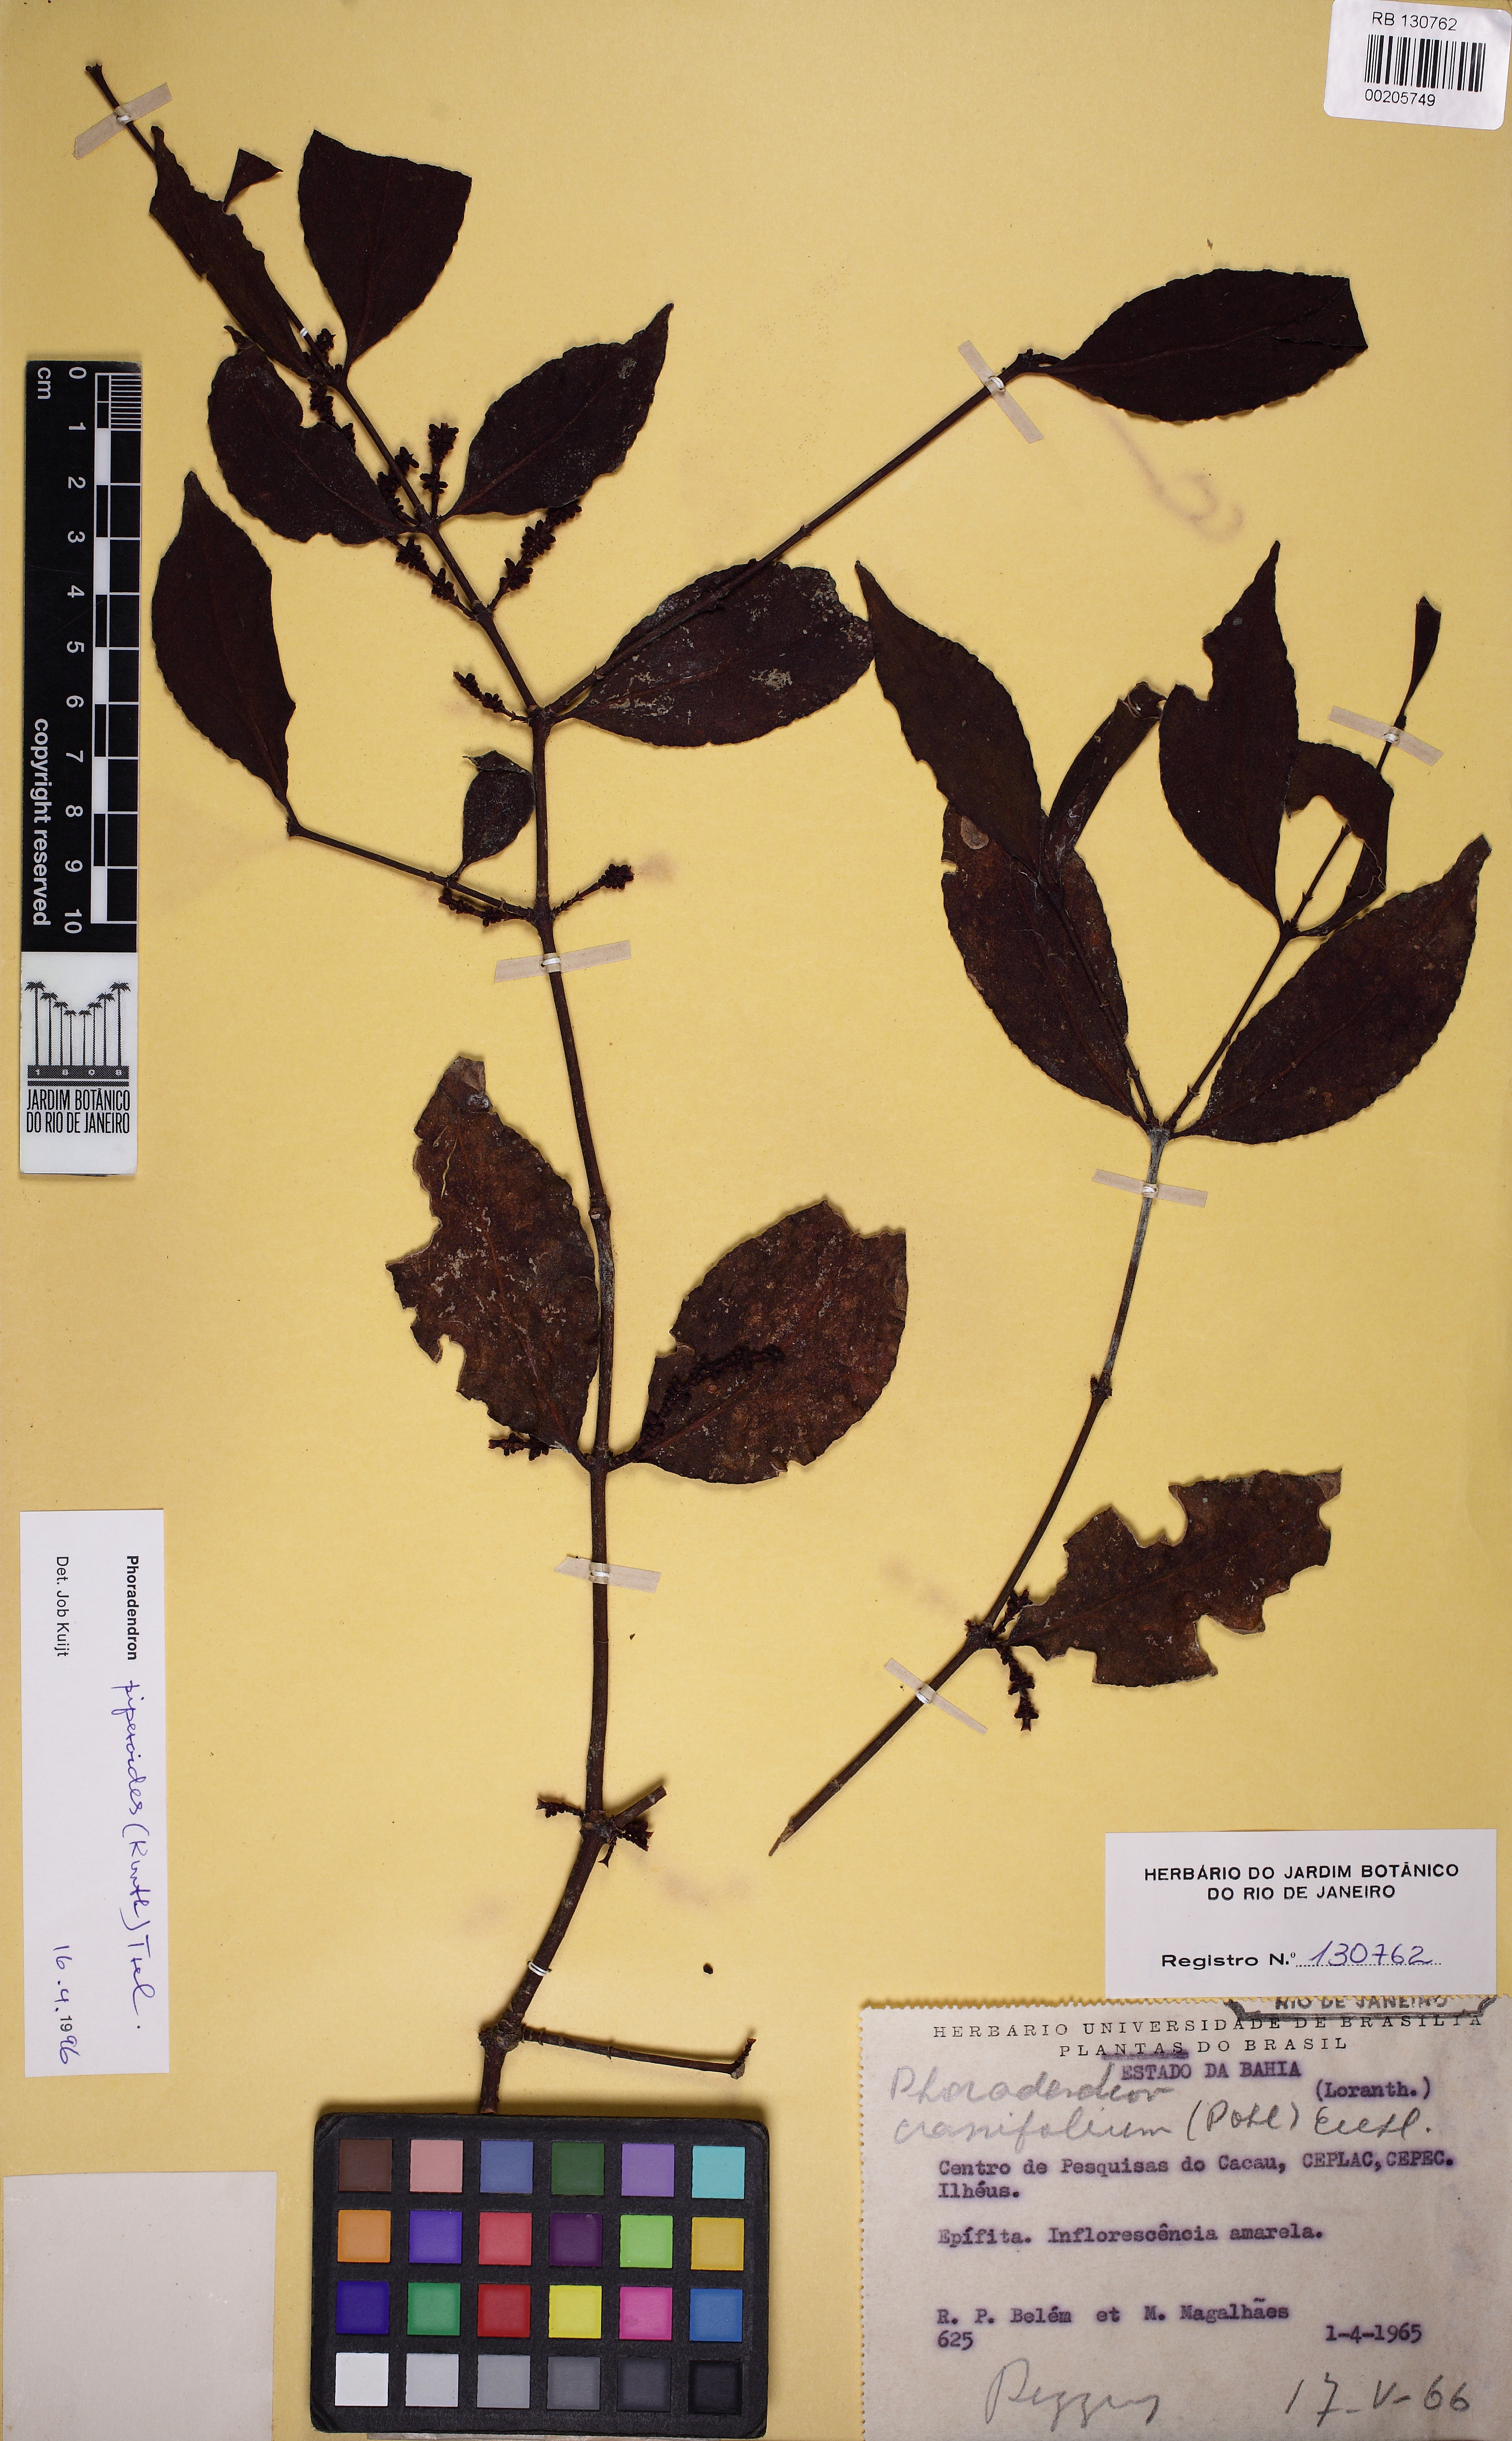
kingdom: Plantae
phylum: Tracheophyta
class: Magnoliopsida
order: Santalales
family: Viscaceae
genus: Phoradendron
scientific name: Phoradendron piperoides
